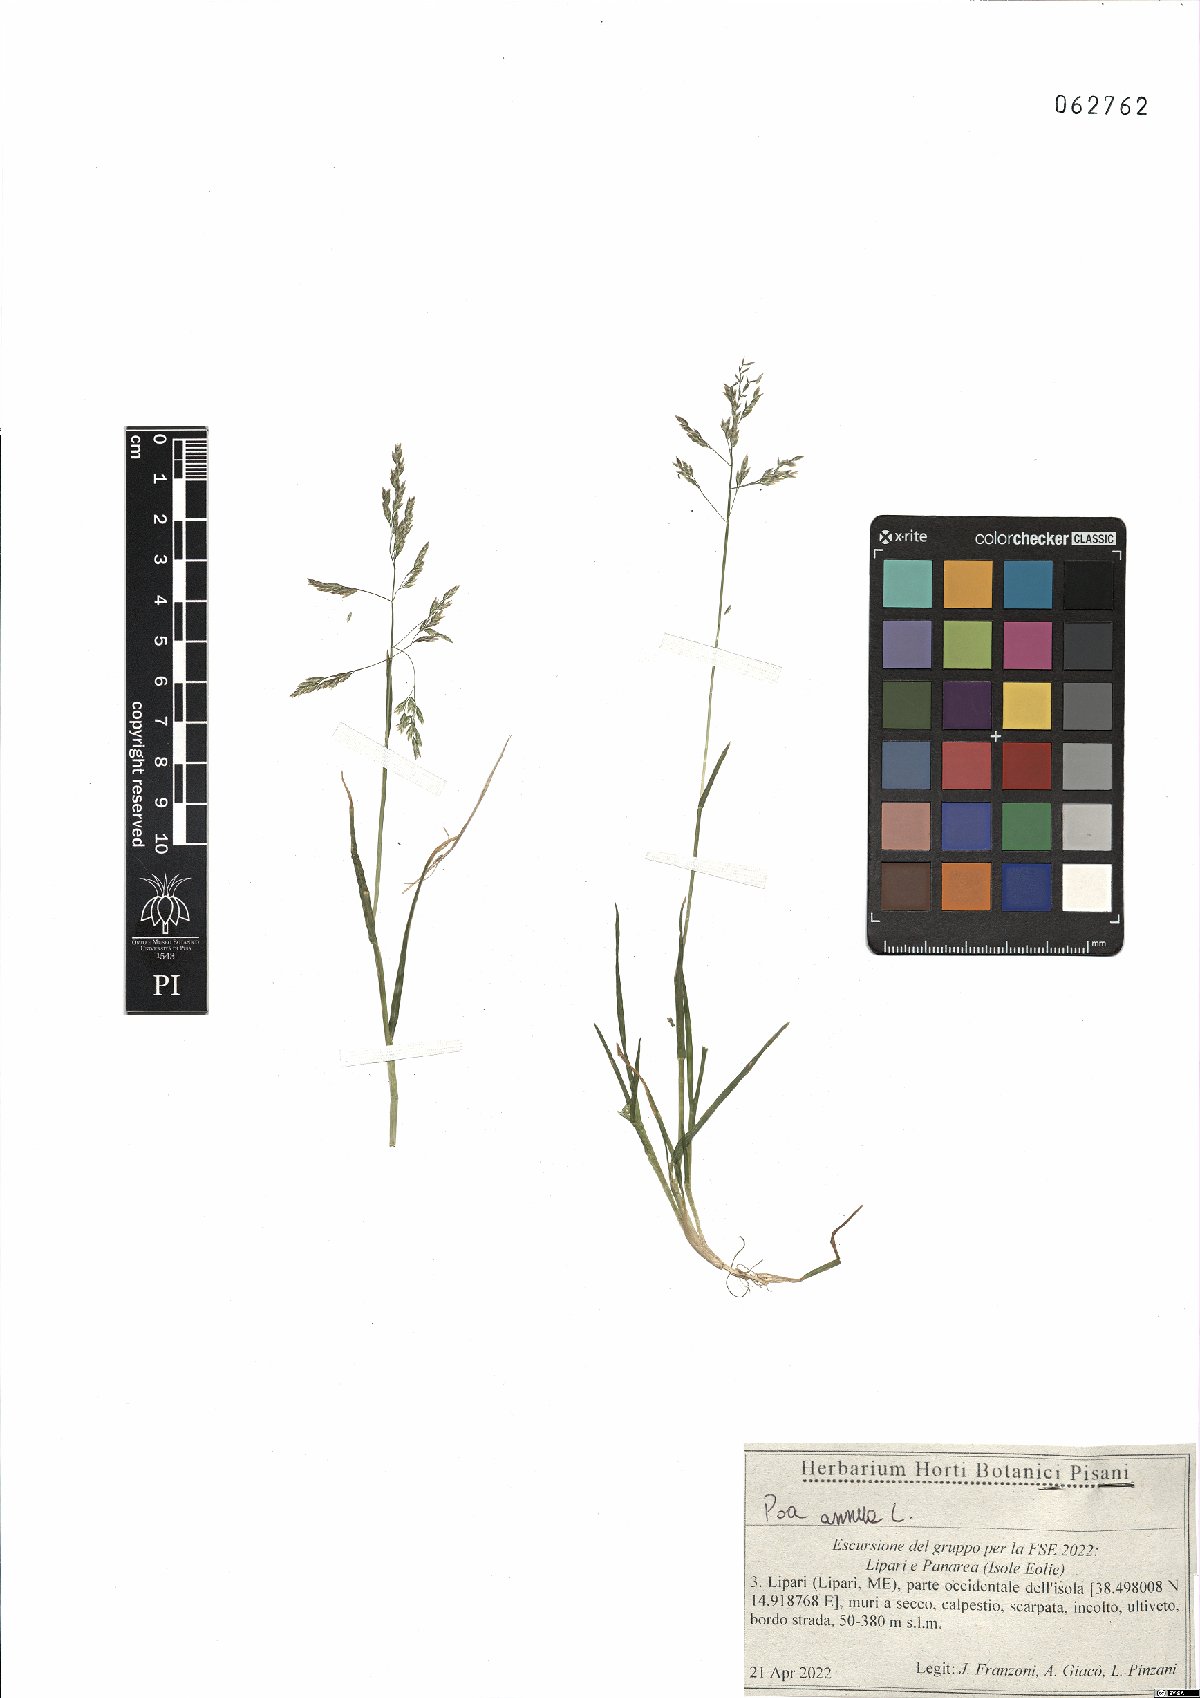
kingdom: Plantae
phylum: Tracheophyta
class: Liliopsida
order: Poales
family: Poaceae
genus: Poa
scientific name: Poa annua
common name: Annual bluegrass
